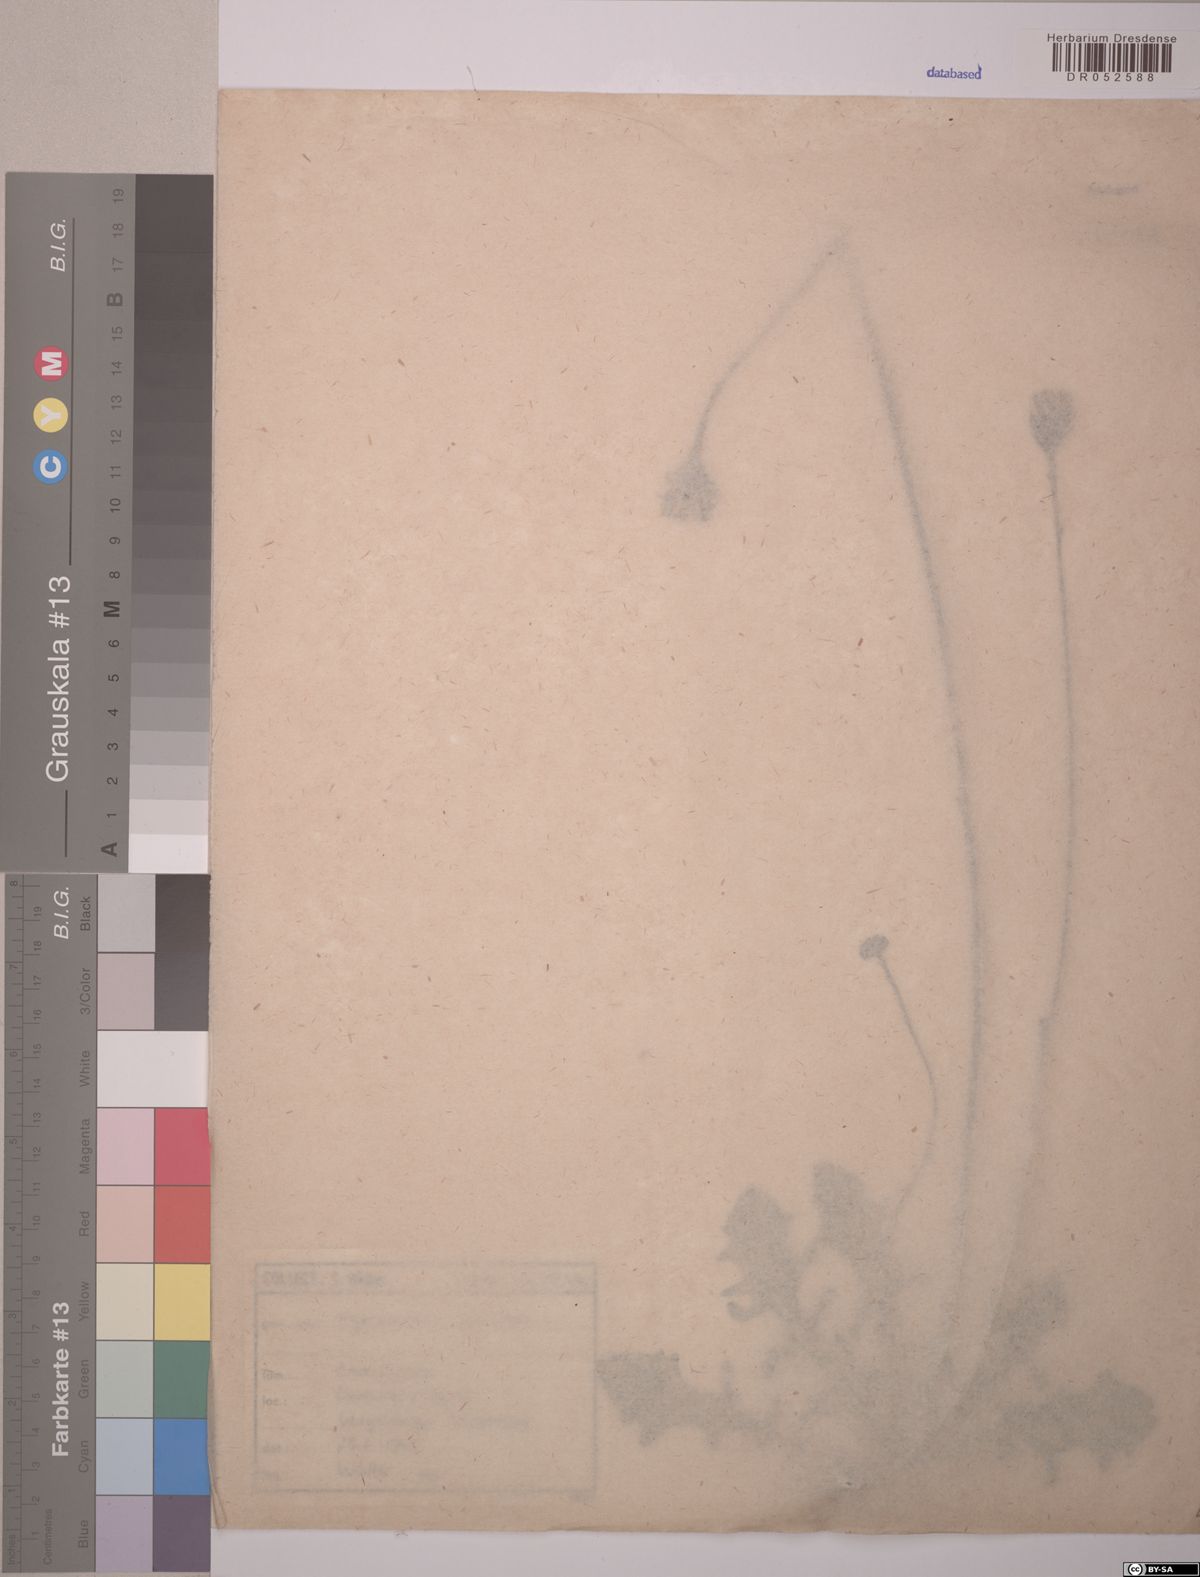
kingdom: Plantae
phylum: Tracheophyta
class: Magnoliopsida
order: Asterales
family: Asteraceae
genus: Hypochaeris
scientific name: Hypochaeris radicata
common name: Flatweed
